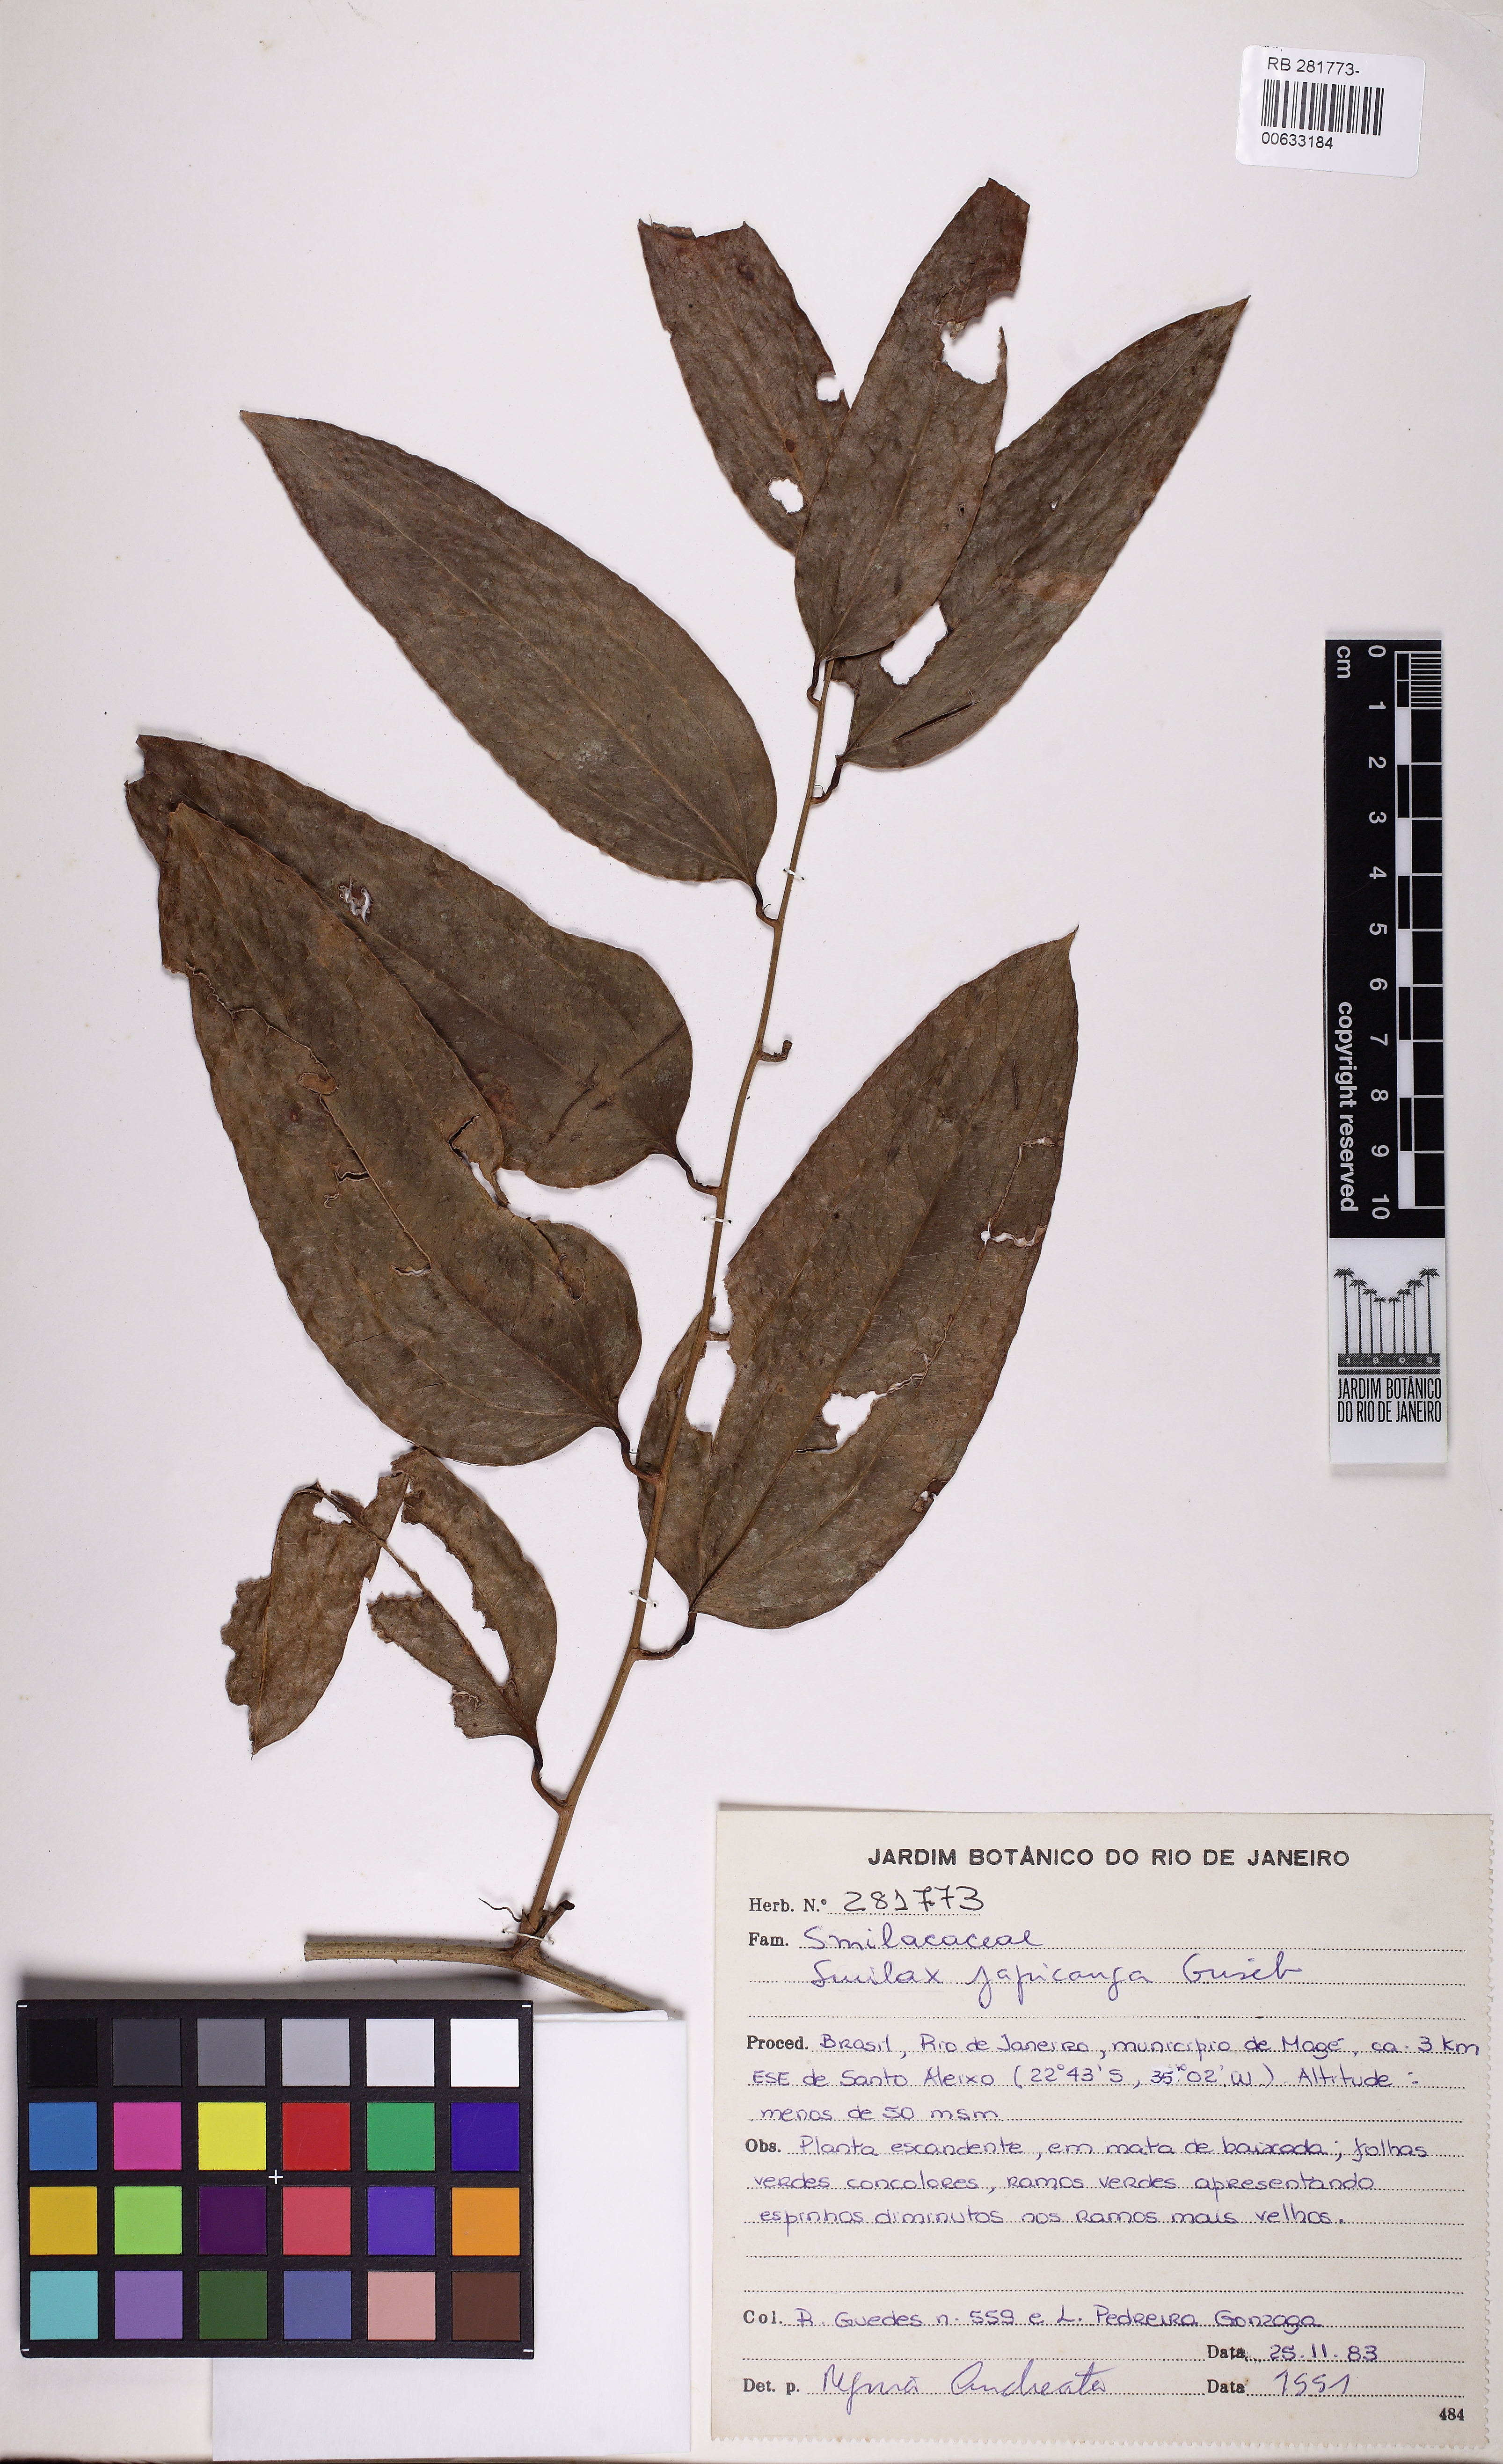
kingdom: Plantae
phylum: Tracheophyta
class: Liliopsida
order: Liliales
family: Smilacaceae
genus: Smilax
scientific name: Smilax japicanga
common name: Japicanga
